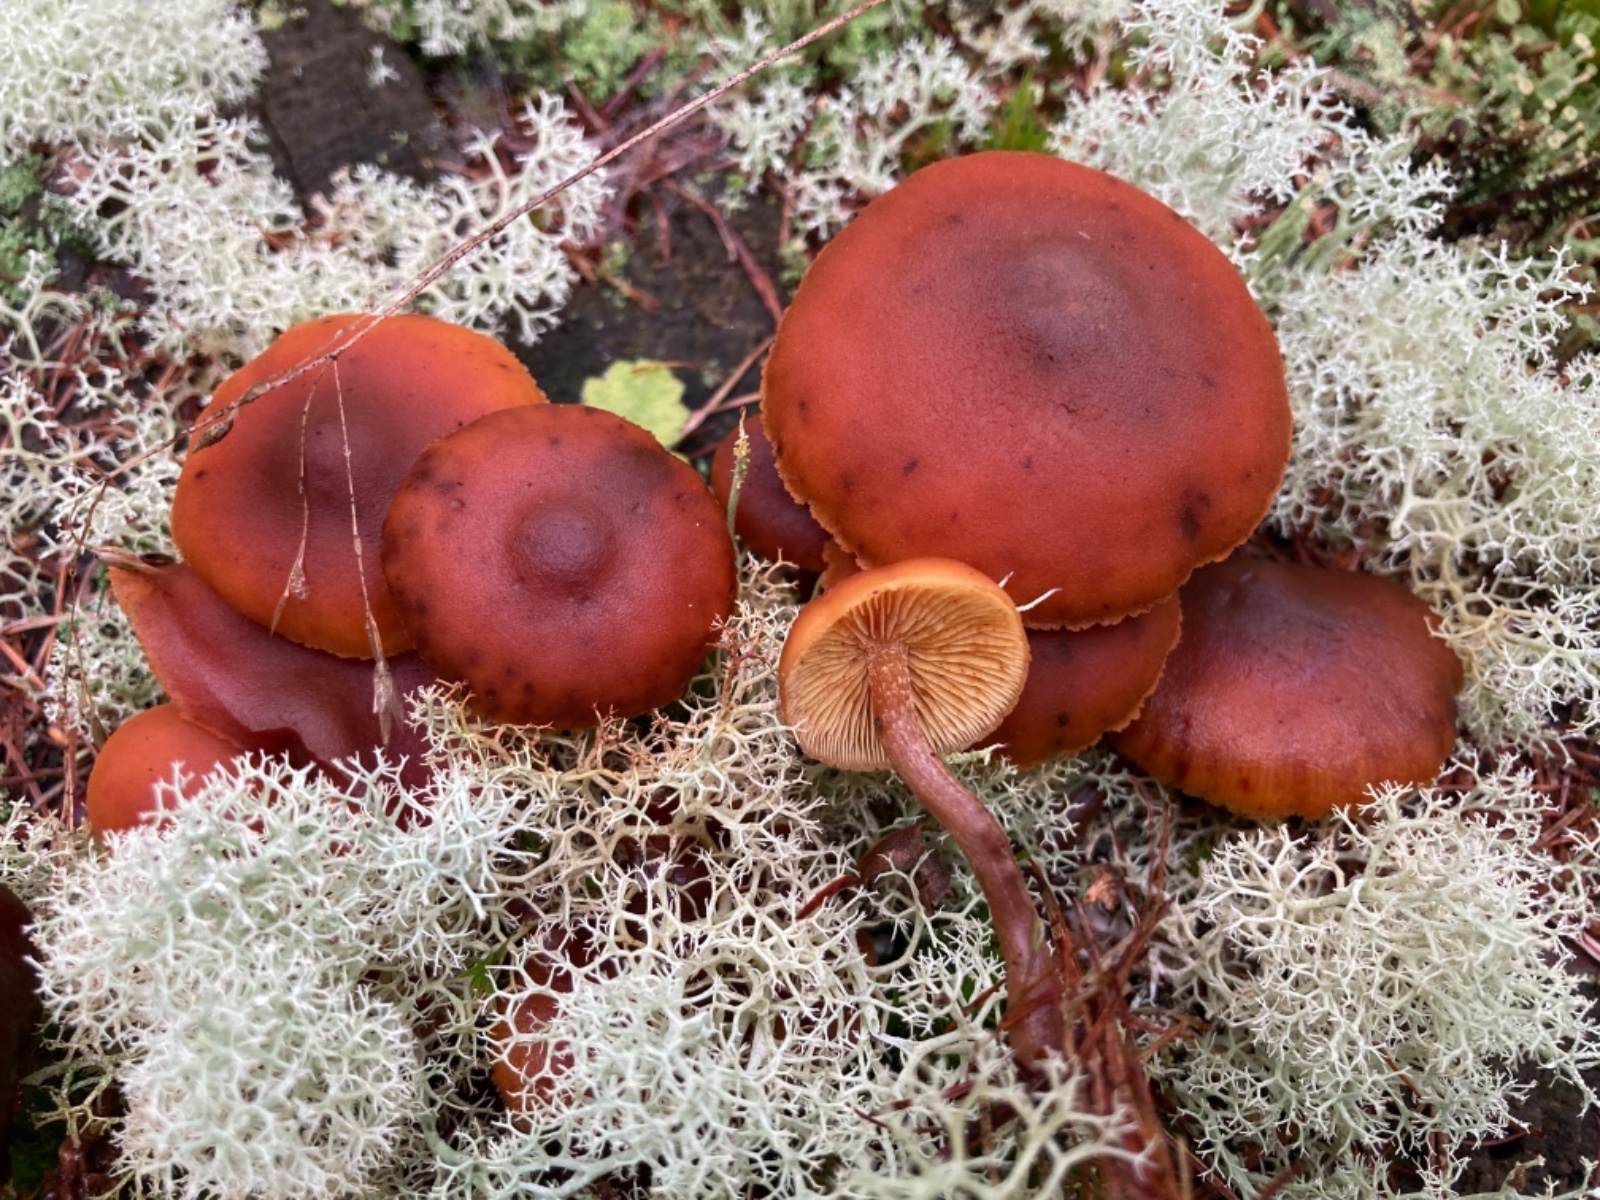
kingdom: Fungi
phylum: Basidiomycota
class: Agaricomycetes
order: Agaricales
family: Hymenogastraceae
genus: Gymnopilus
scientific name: Gymnopilus picreus
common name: puklet flammehat
